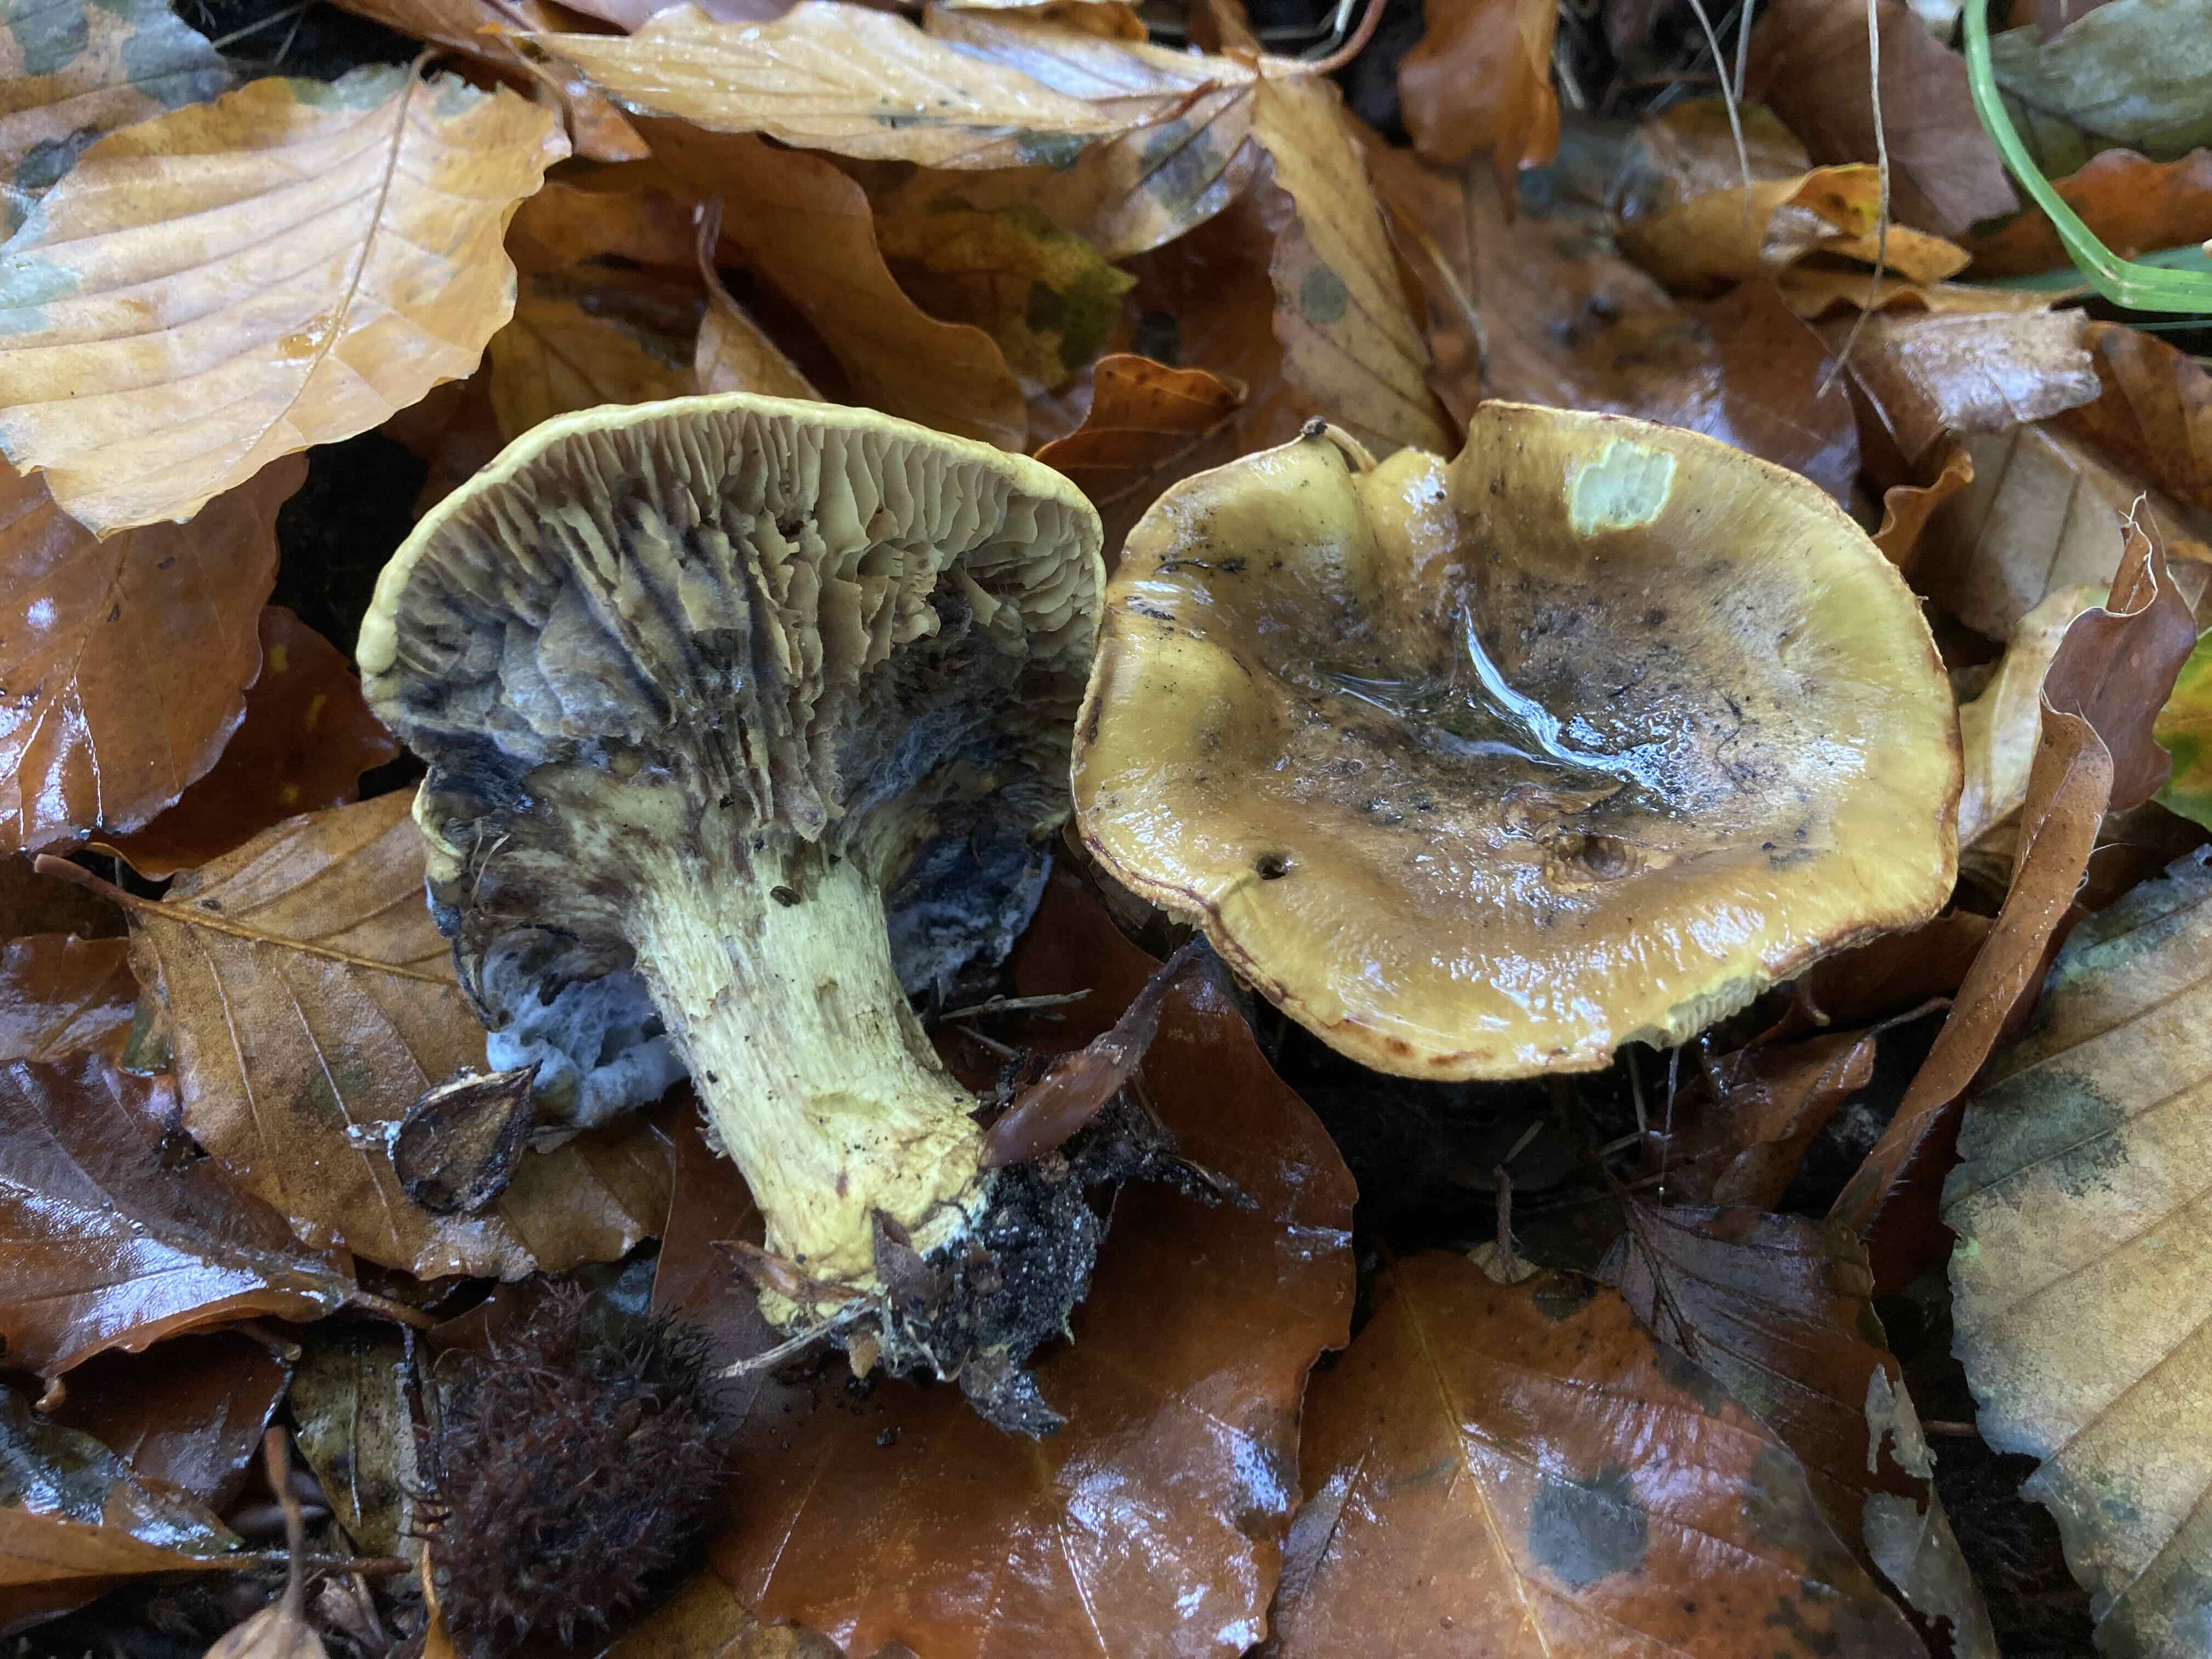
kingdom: Fungi
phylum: Basidiomycota
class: Agaricomycetes
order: Agaricales
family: Cortinariaceae
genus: Calonarius
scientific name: Calonarius citrinus
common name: citrongul slørhat
